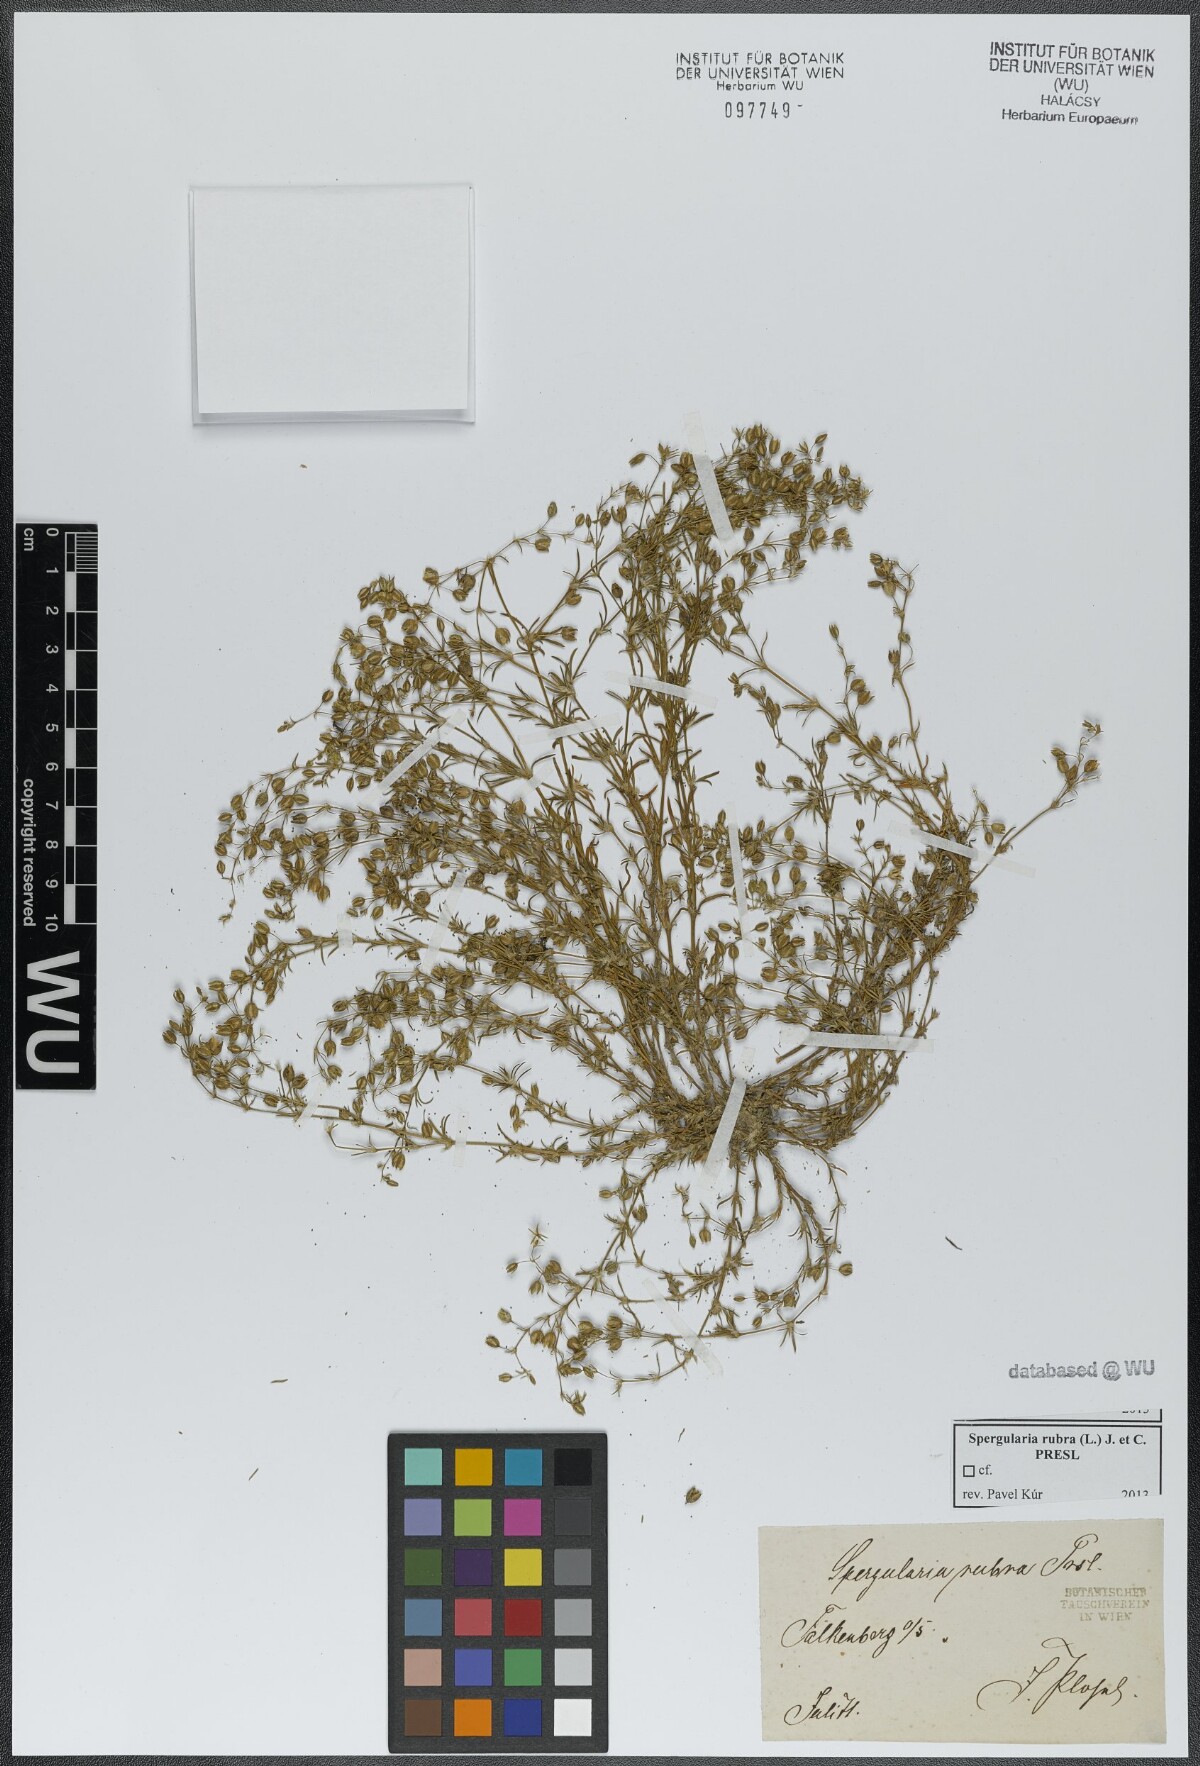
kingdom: Plantae
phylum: Tracheophyta
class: Magnoliopsida
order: Caryophyllales
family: Caryophyllaceae
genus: Spergularia
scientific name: Spergularia rubra
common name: Red sand-spurrey
